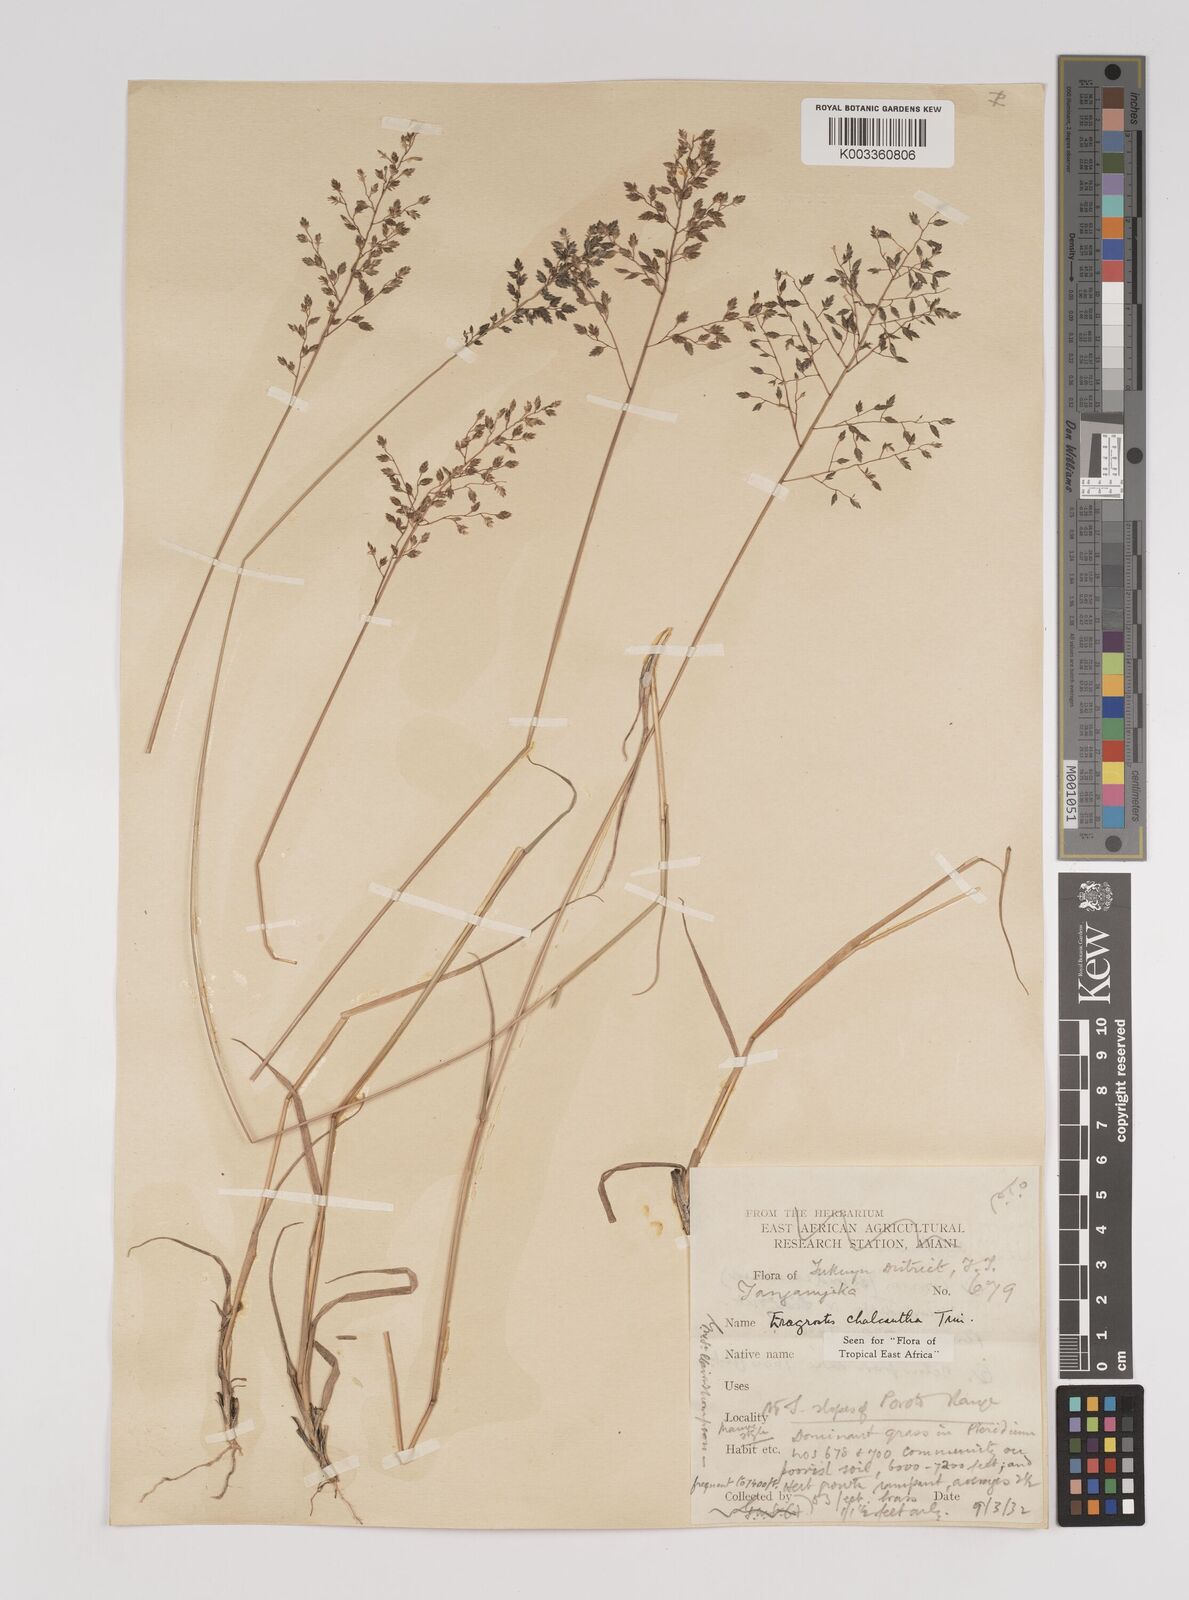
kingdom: Plantae
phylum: Tracheophyta
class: Liliopsida
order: Poales
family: Poaceae
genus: Eragrostis
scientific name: Eragrostis racemosa
